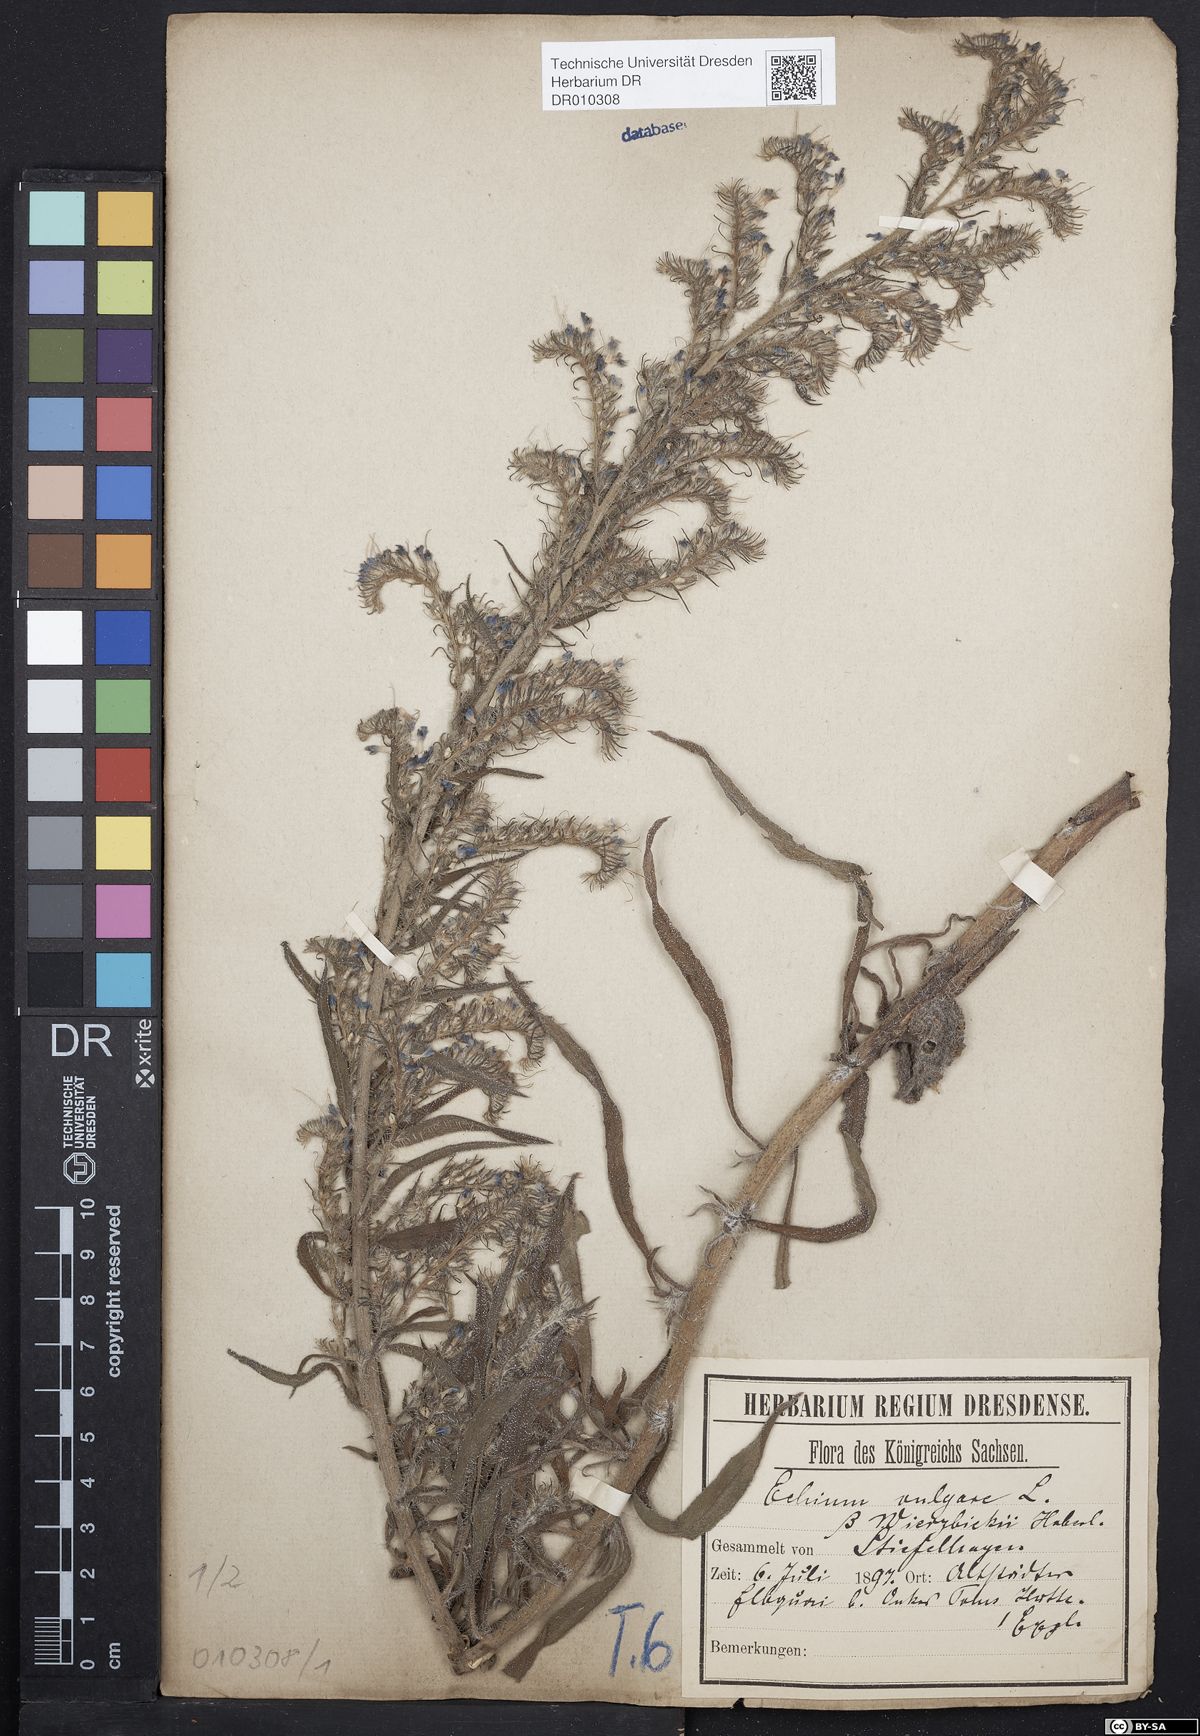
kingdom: Plantae
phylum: Tracheophyta
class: Magnoliopsida
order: Boraginales
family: Boraginaceae
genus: Echium
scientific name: Echium vulgare
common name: Common viper's bugloss
